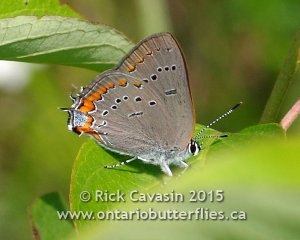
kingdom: Animalia
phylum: Arthropoda
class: Insecta
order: Lepidoptera
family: Lycaenidae
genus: Strymon
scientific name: Strymon acadica
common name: Acadian Hairstreak
